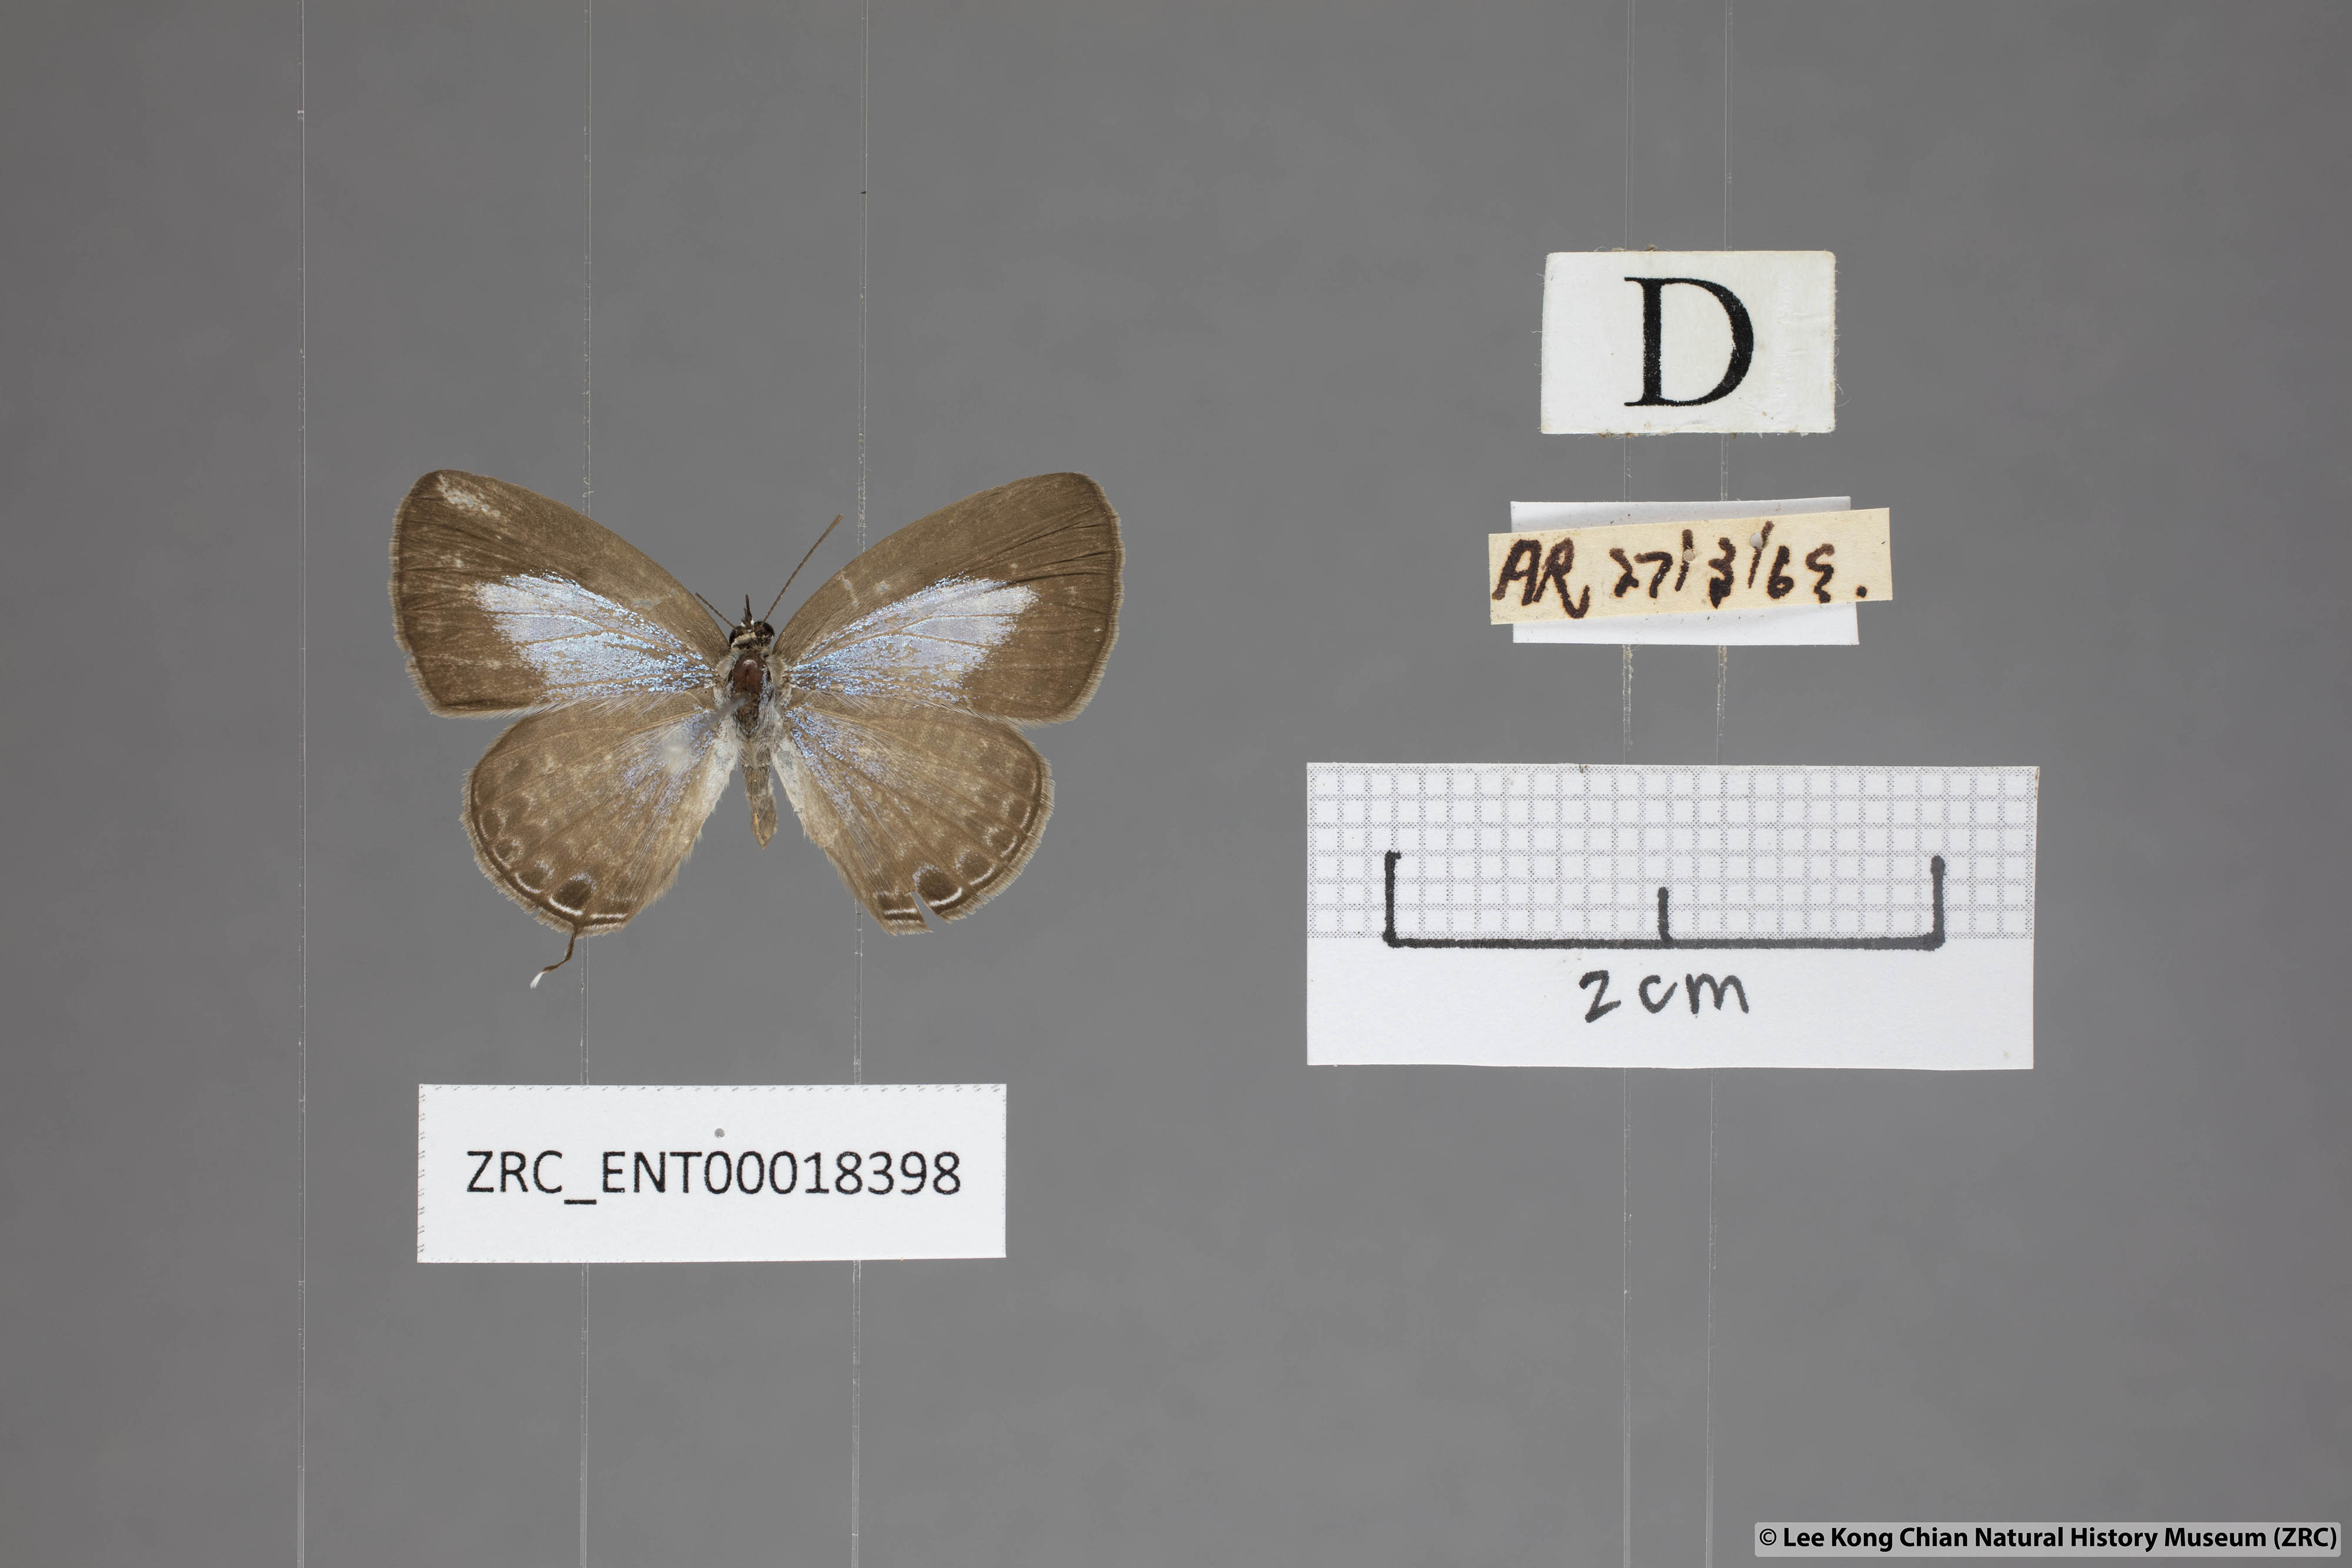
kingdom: Animalia
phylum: Arthropoda
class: Insecta
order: Lepidoptera
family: Lycaenidae
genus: Nacaduba
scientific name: Nacaduba kurava
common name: Transparent 6-line blue
